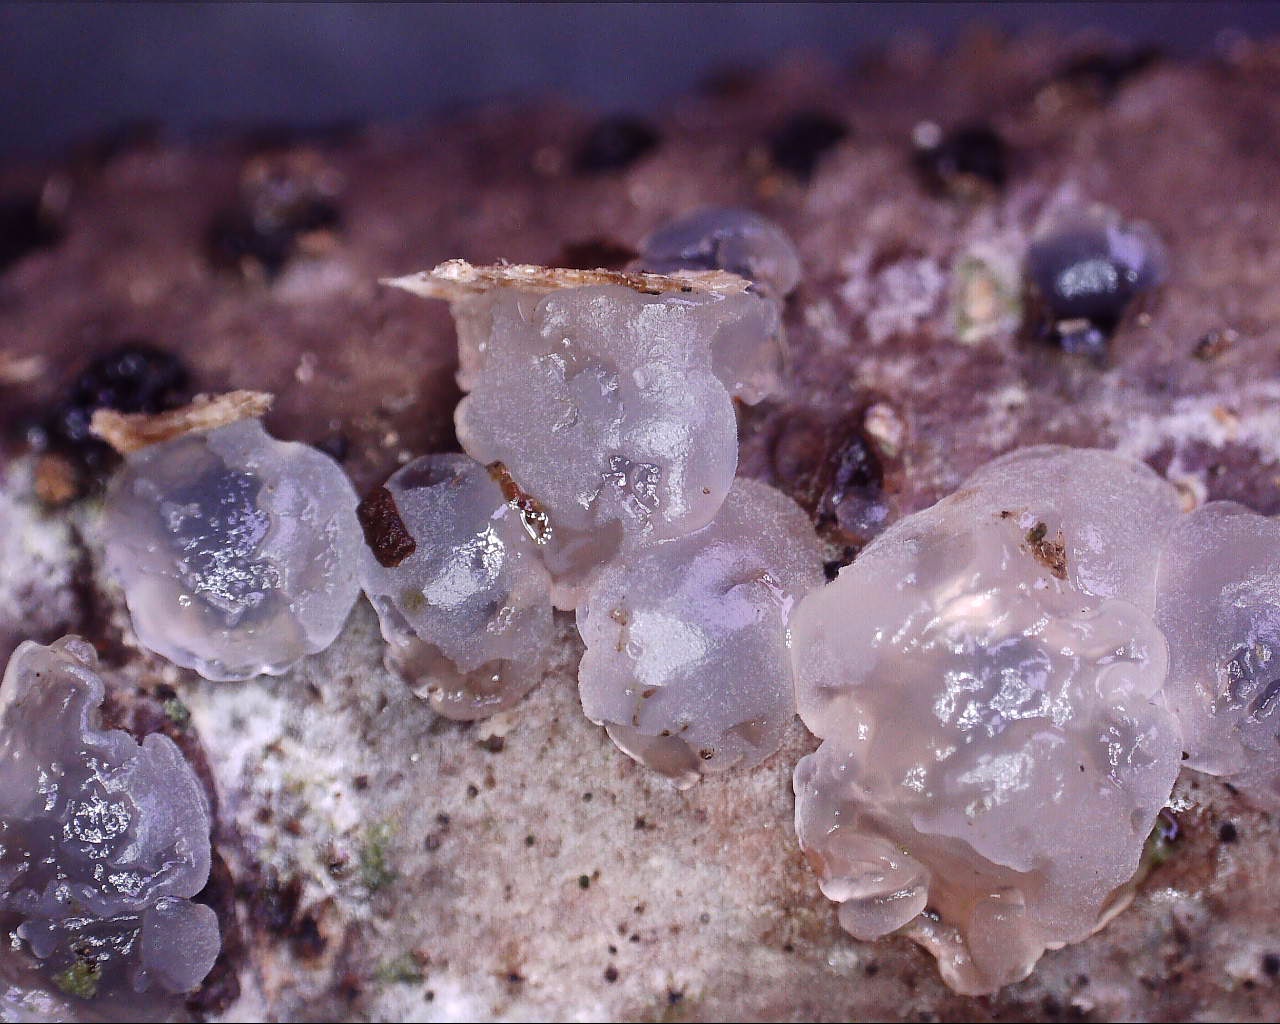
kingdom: Fungi
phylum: Basidiomycota
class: Agaricomycetes
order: Auriculariales
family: Hyaloriaceae
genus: Myxarium
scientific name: Myxarium nucleatum
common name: klar bævretop
